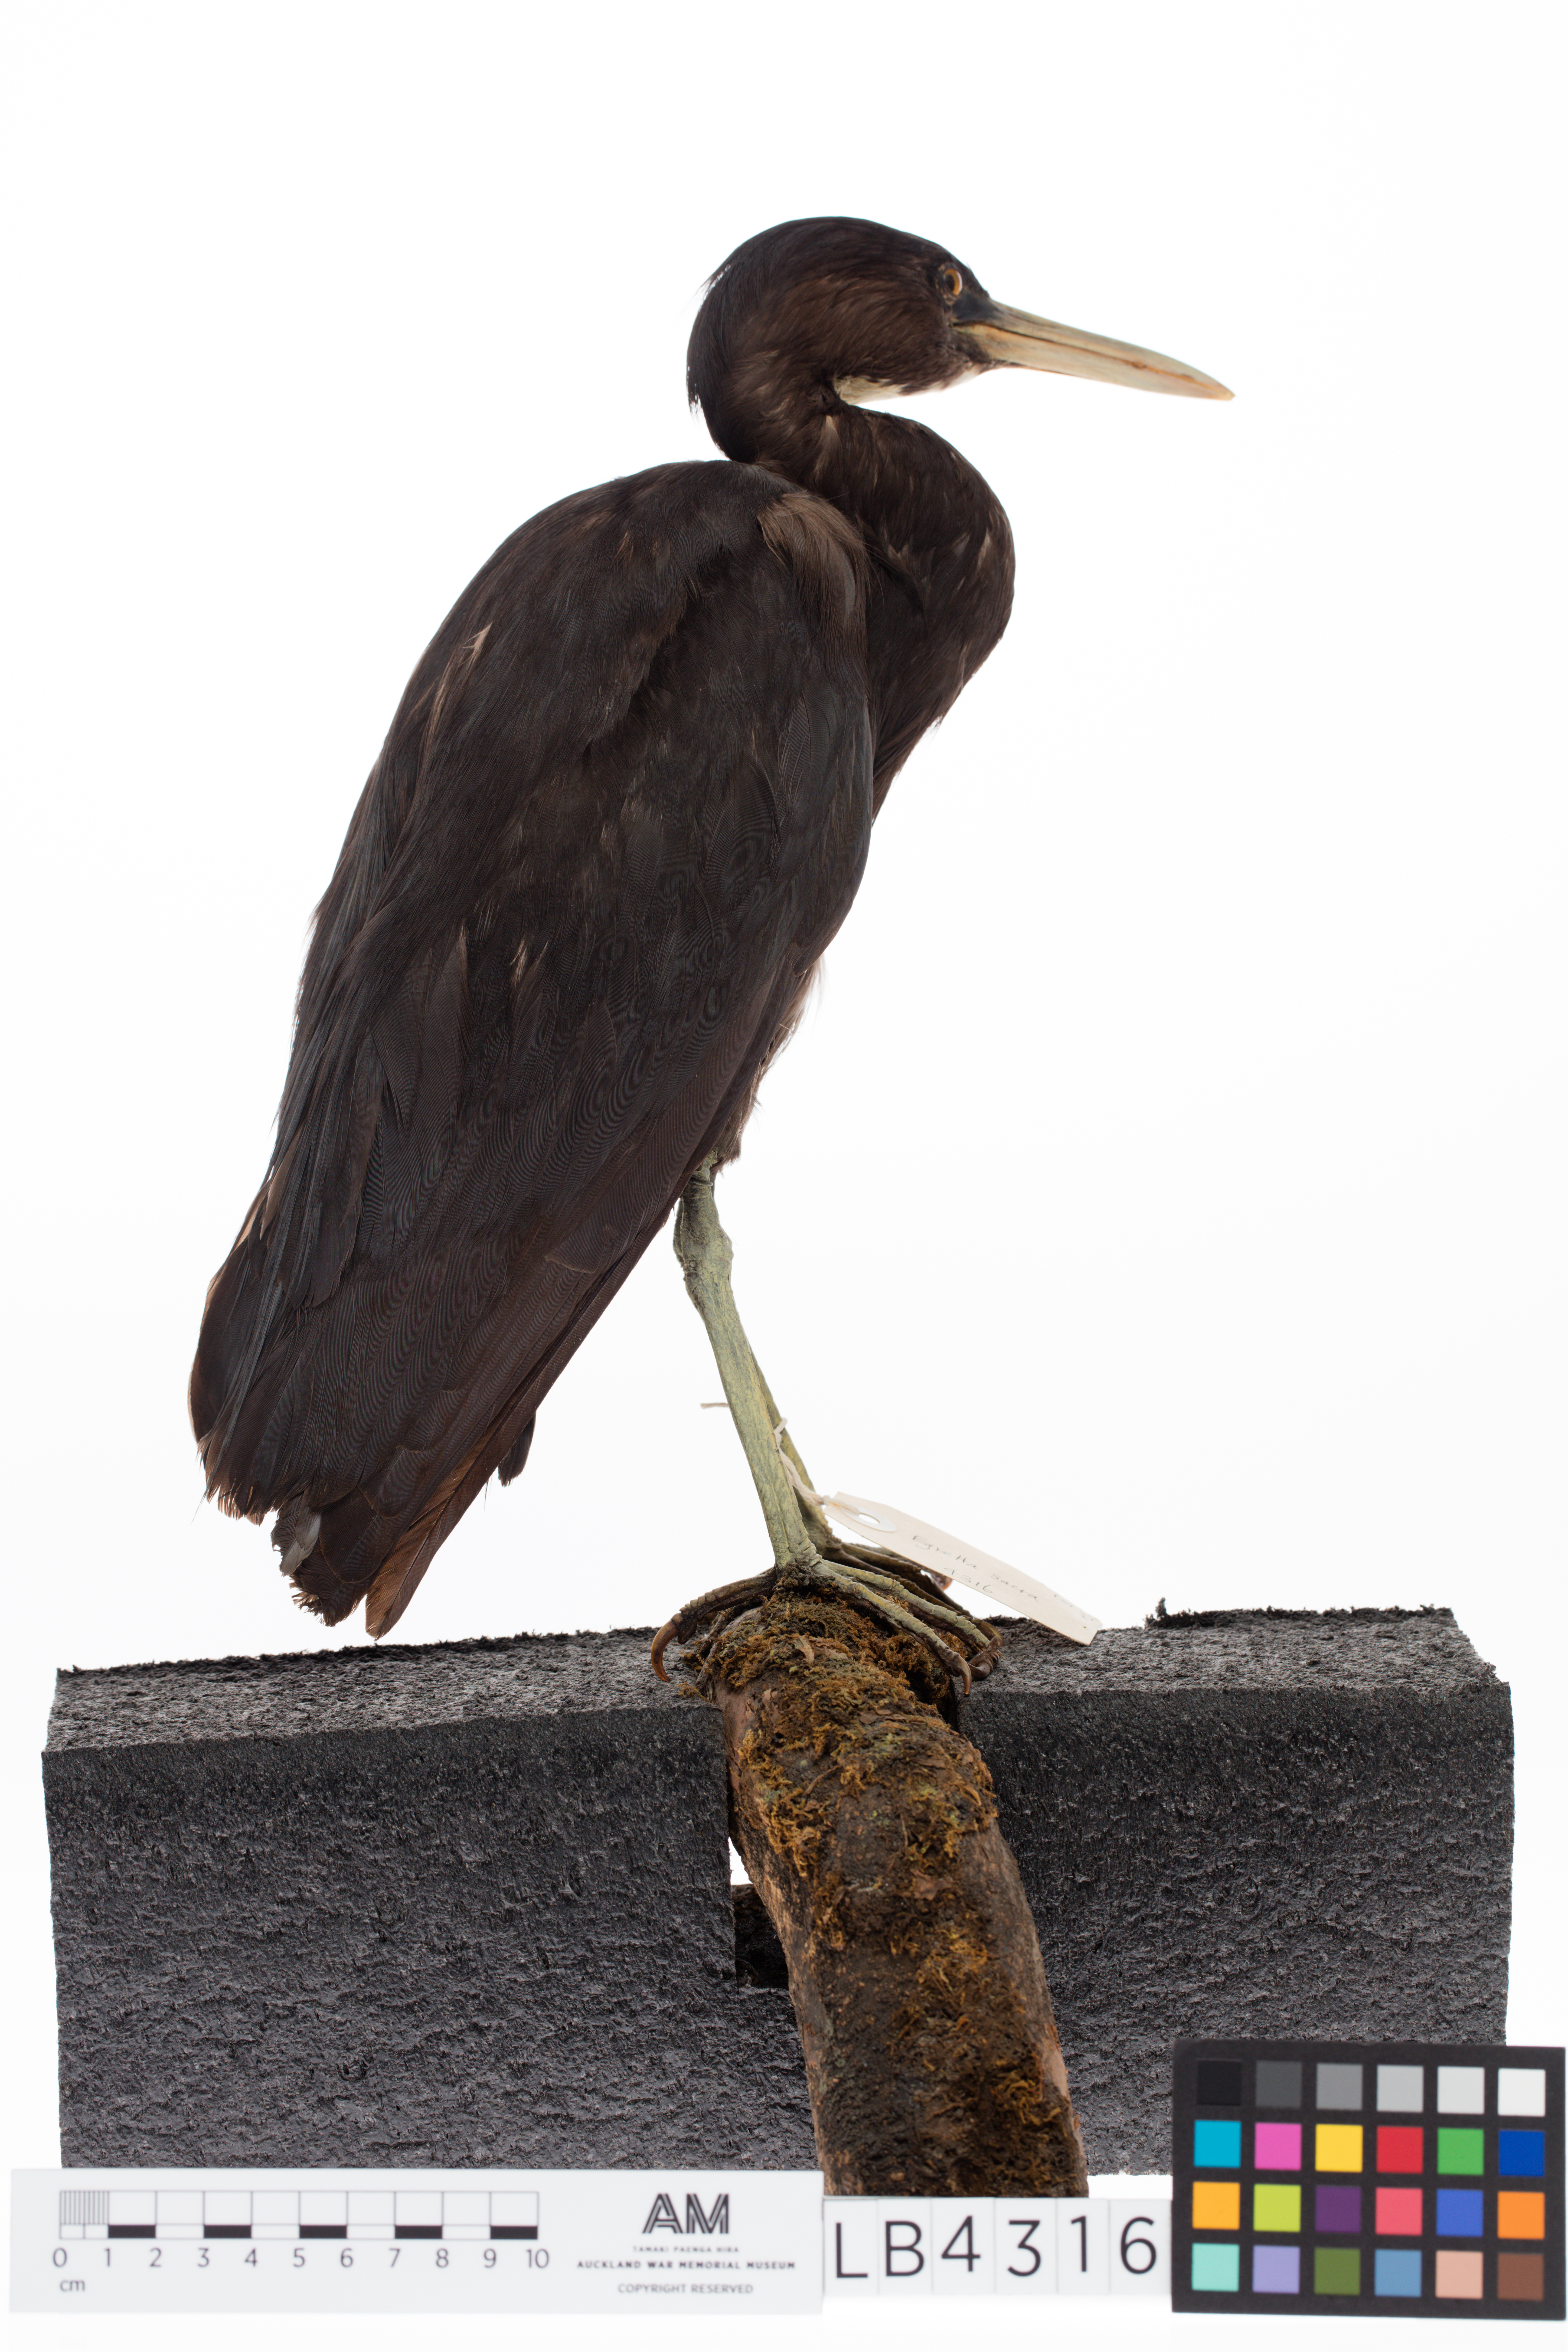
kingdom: Animalia
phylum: Chordata
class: Aves
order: Pelecaniformes
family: Ardeidae
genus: Egretta
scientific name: Egretta sacra
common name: Pacific reef heron
